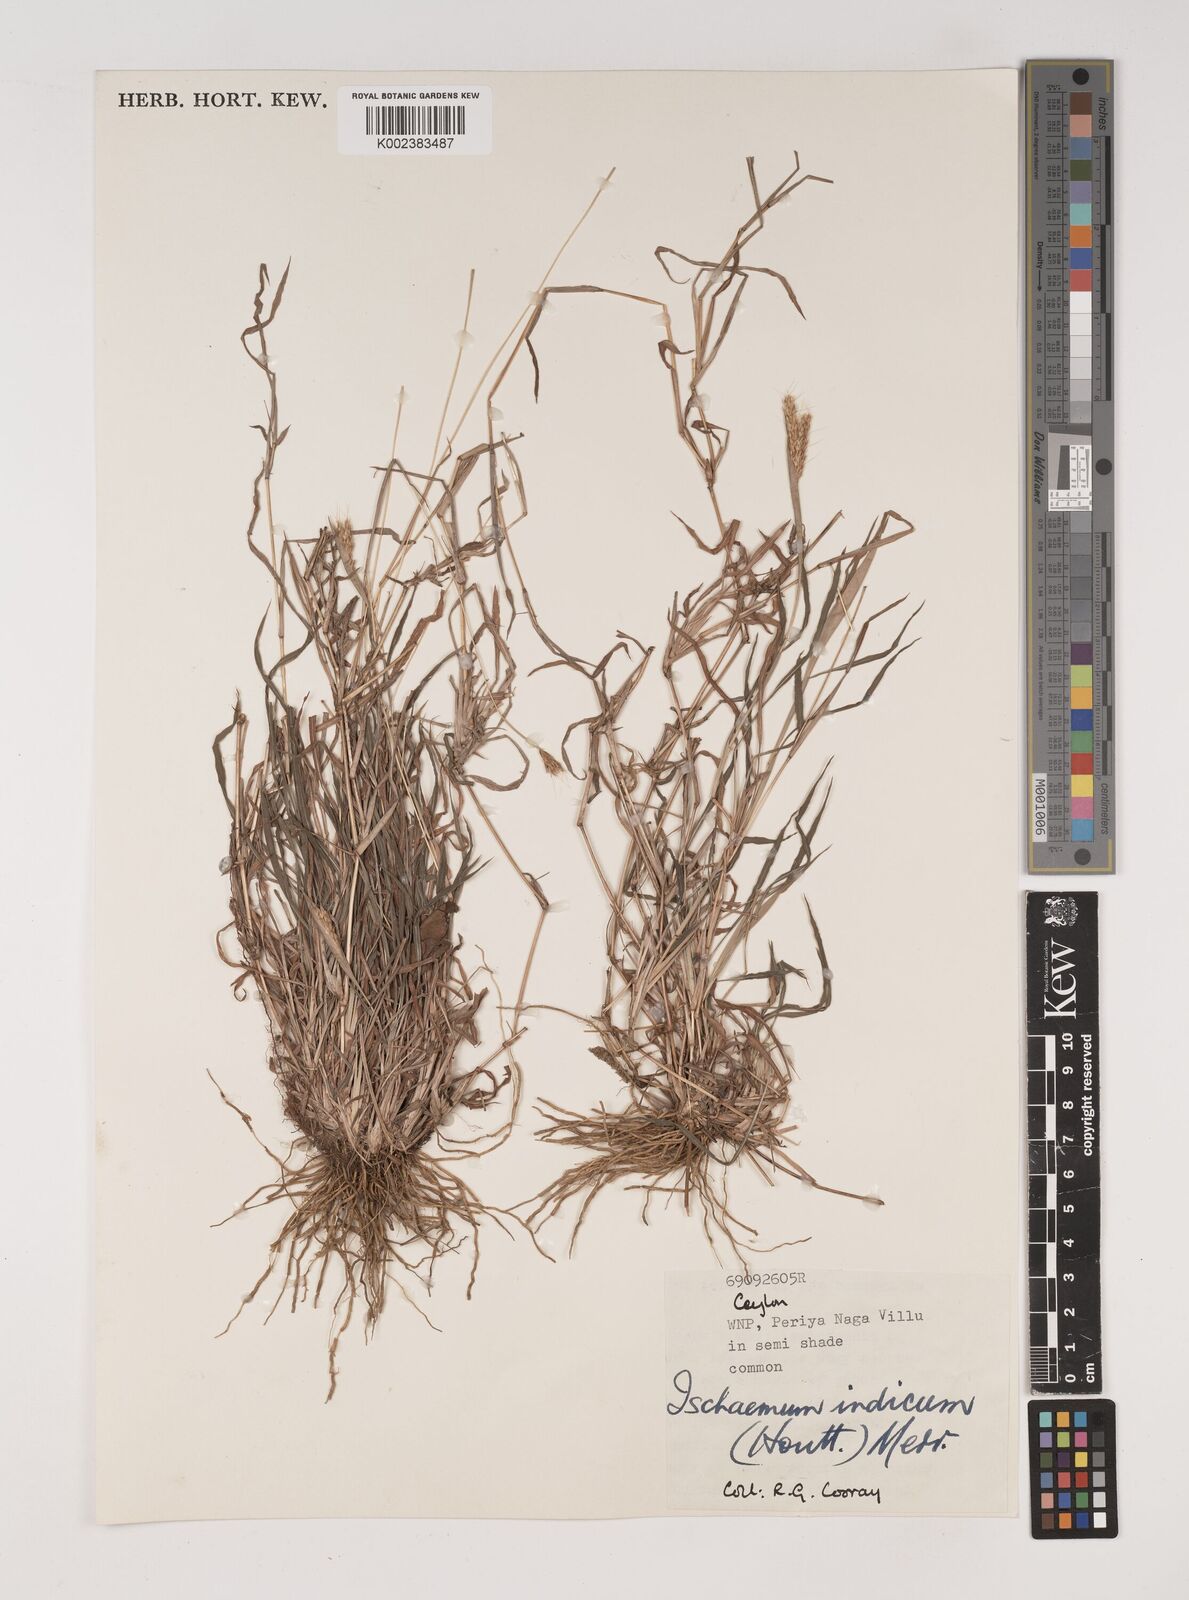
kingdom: Plantae
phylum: Tracheophyta
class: Liliopsida
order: Poales
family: Poaceae
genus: Polytrias
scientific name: Polytrias indica
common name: Indian murainagrass
